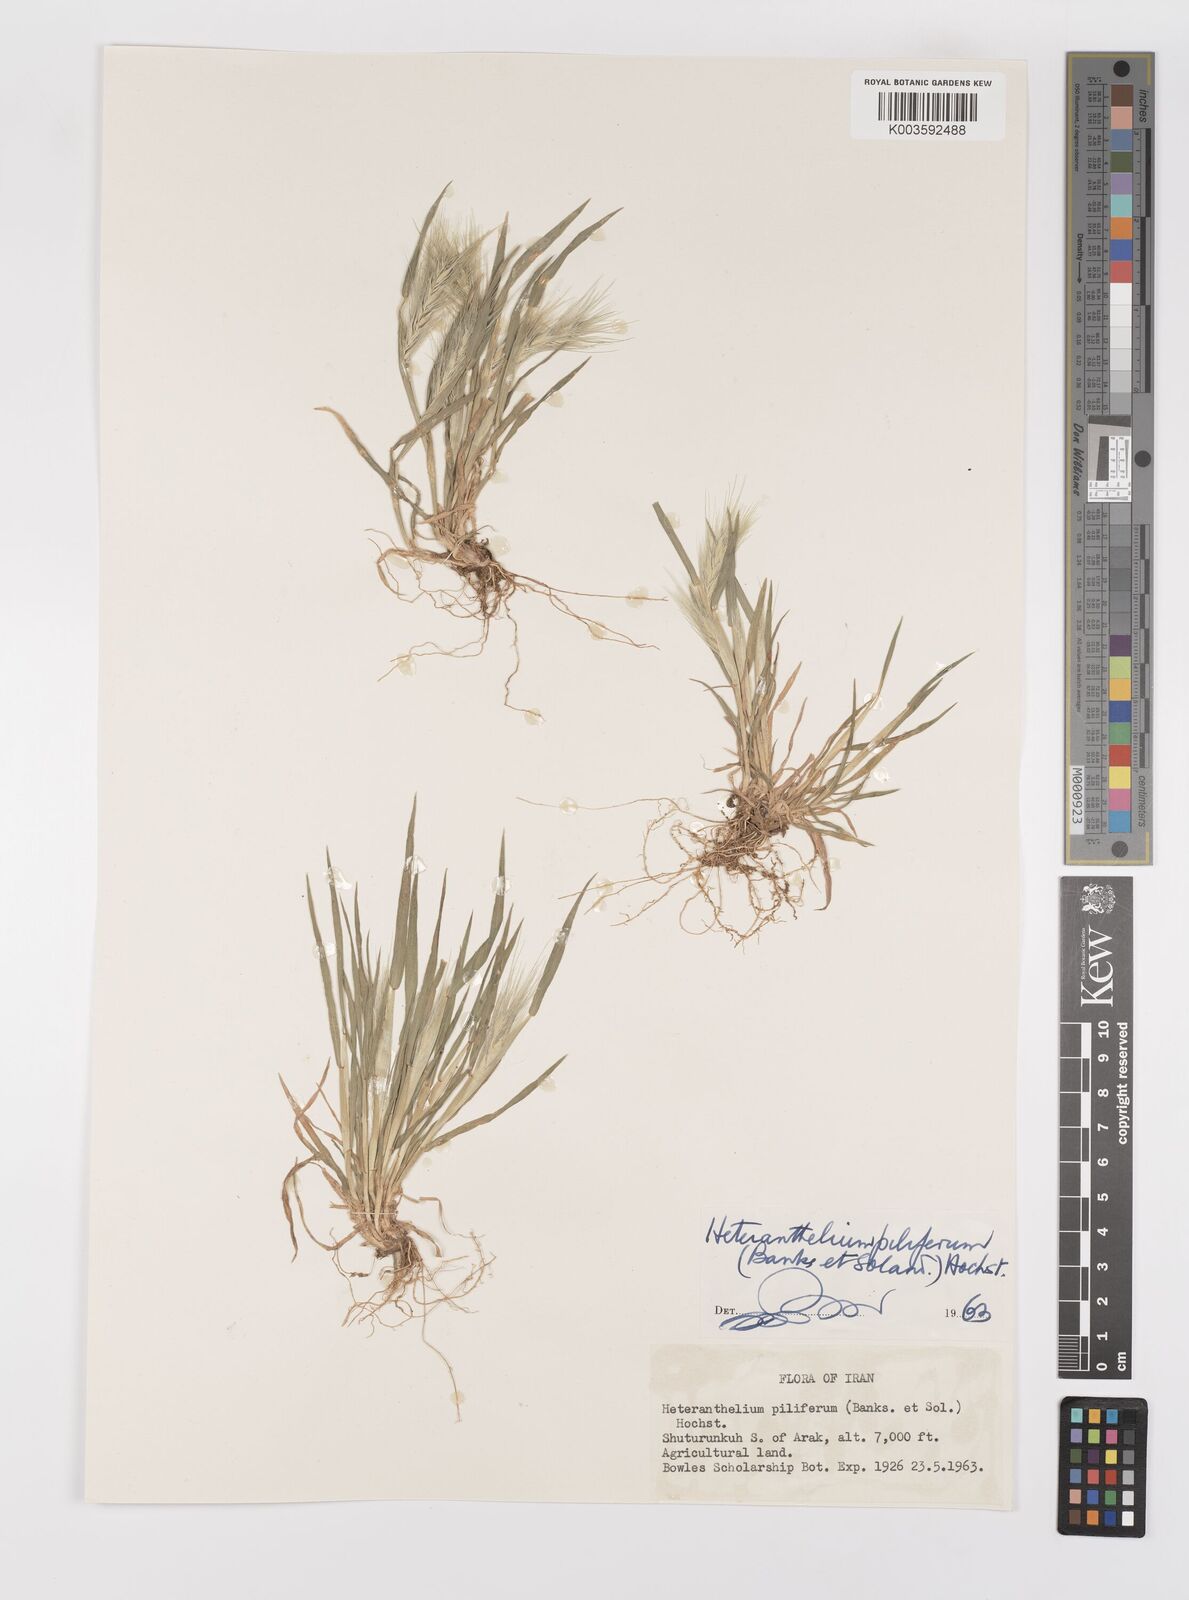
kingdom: Plantae
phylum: Tracheophyta
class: Liliopsida
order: Poales
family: Poaceae
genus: Heteranthelium
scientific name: Heteranthelium piliferum
